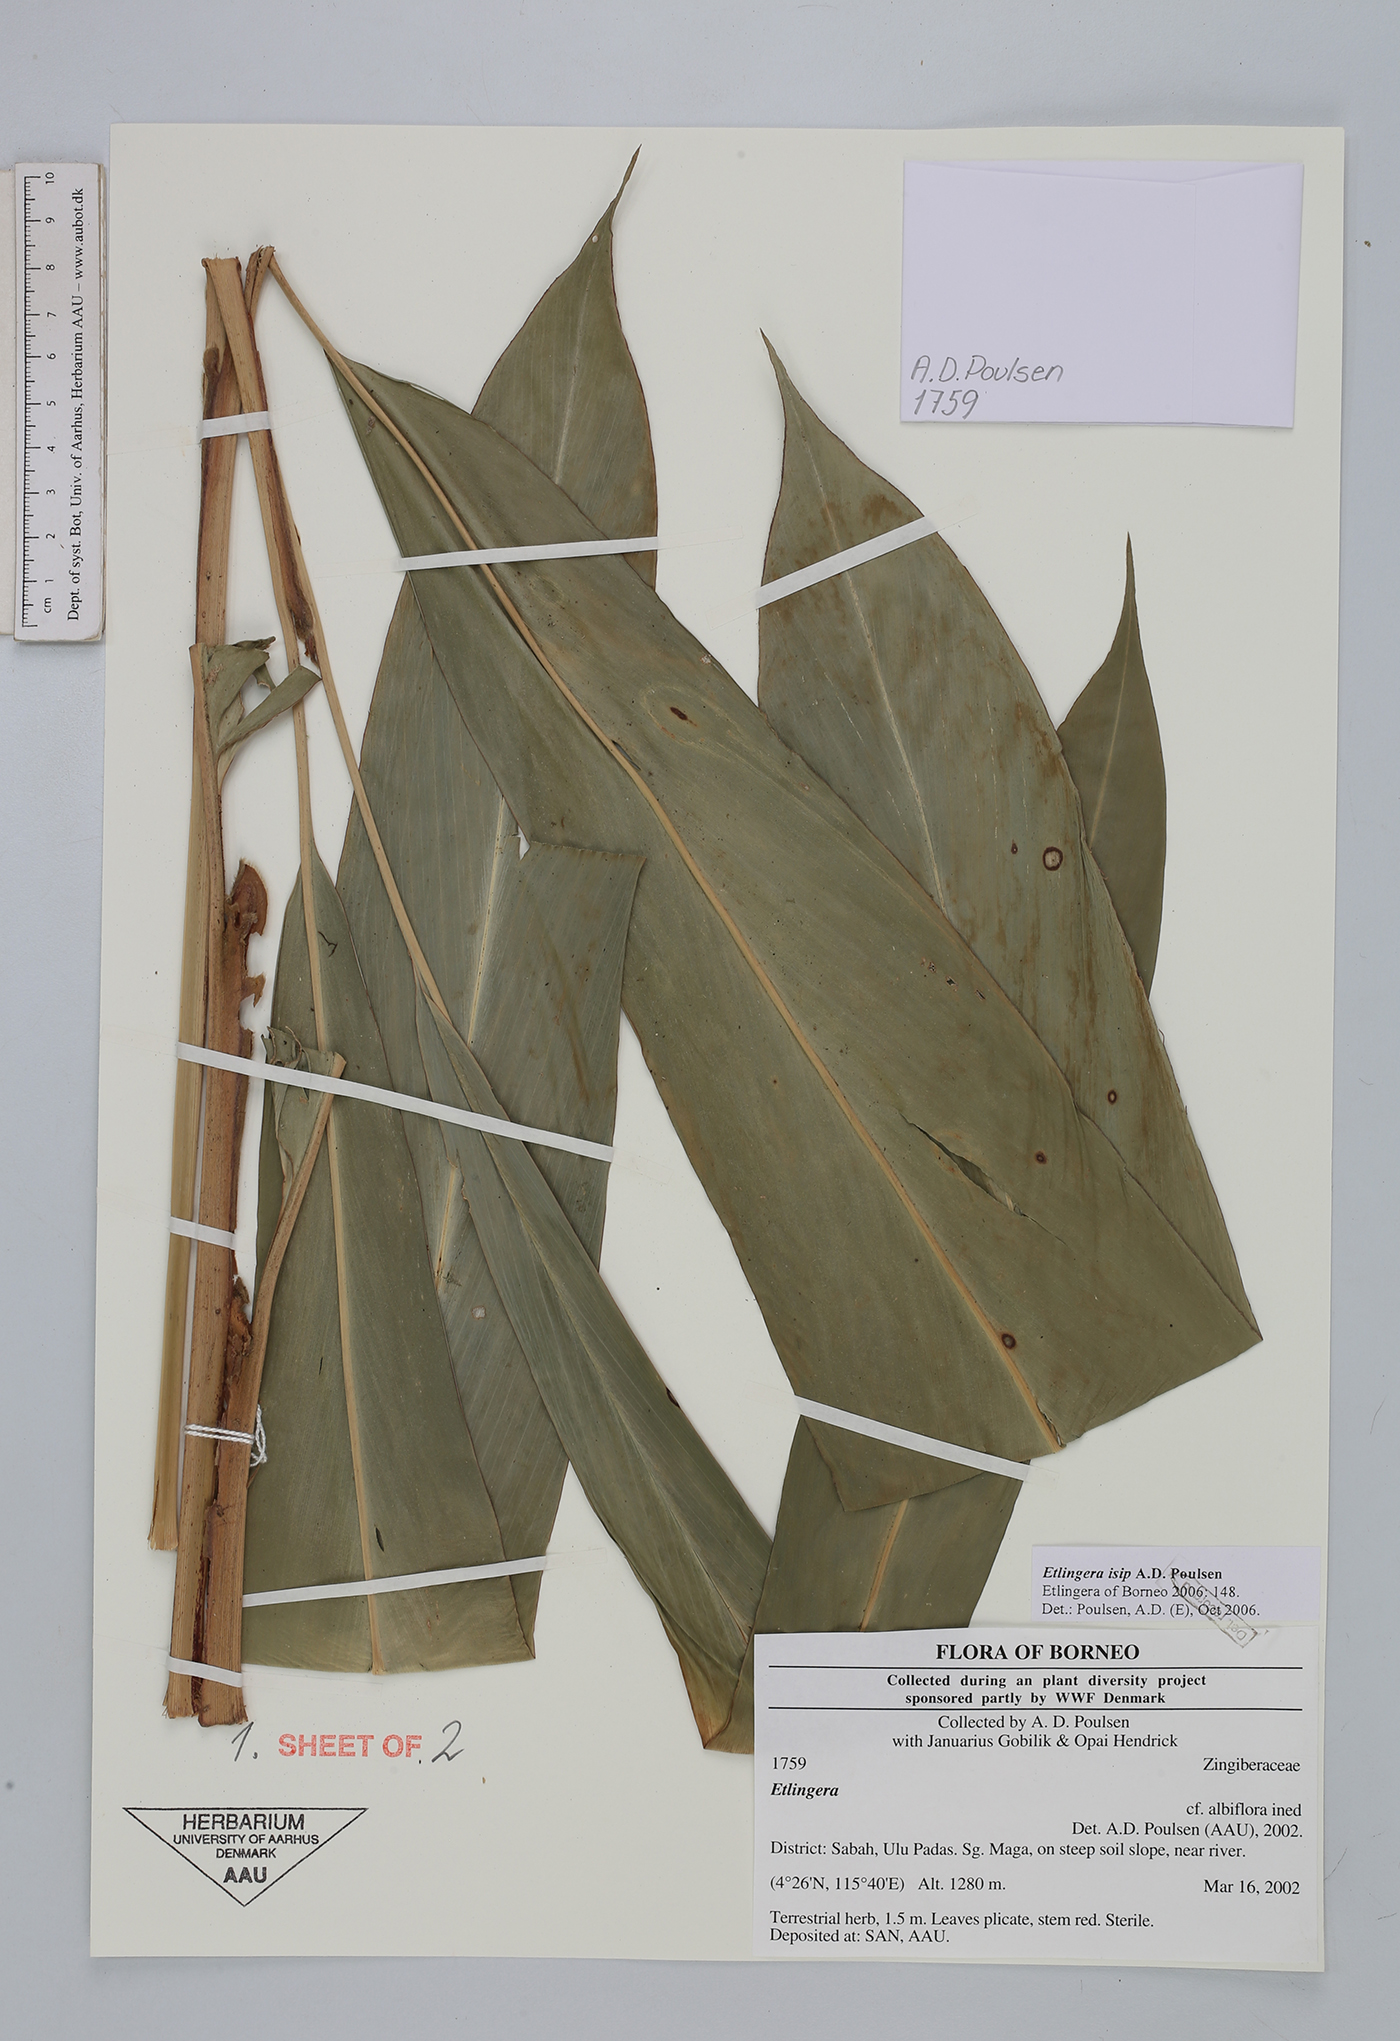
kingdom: Plantae
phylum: Tracheophyta
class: Liliopsida
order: Zingiberales
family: Zingiberaceae
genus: Etlingera
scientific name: Etlingera isip
